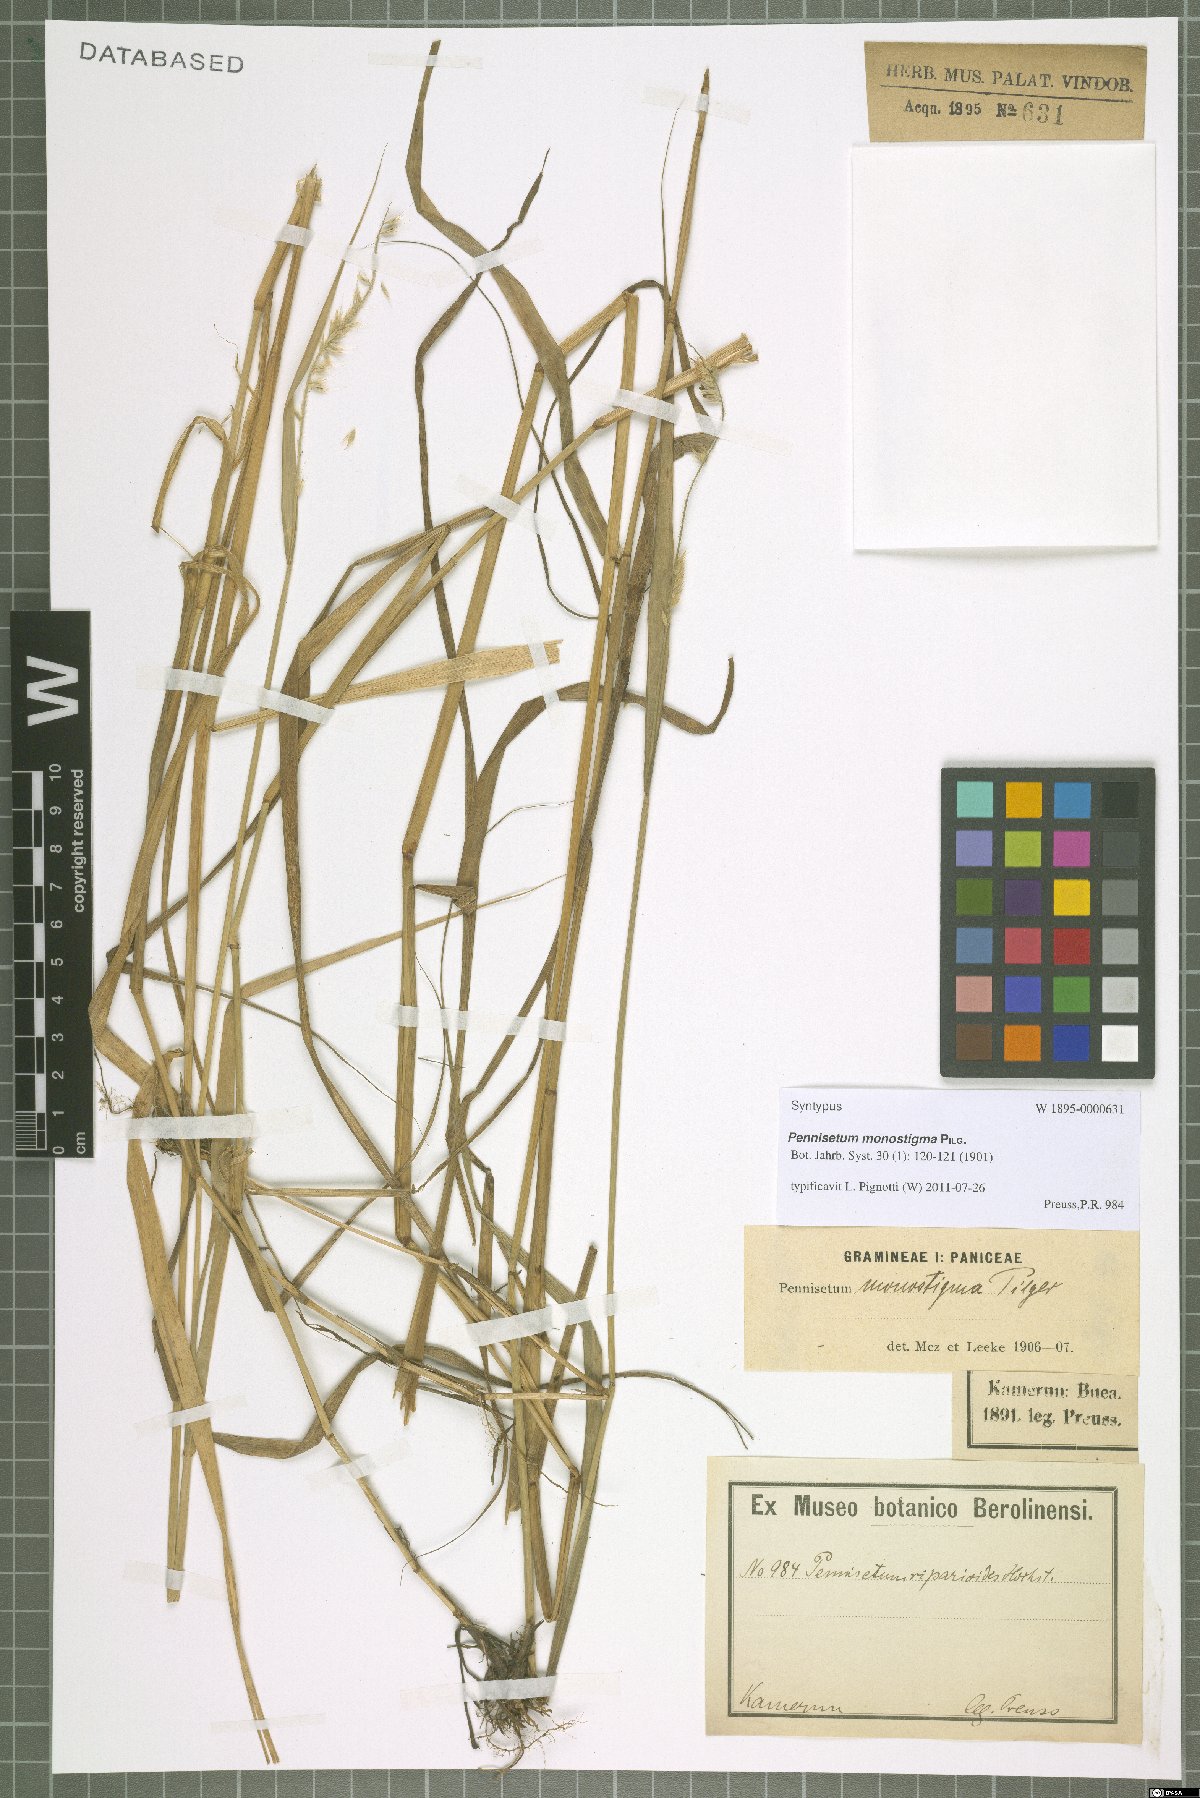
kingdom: Plantae
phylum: Tracheophyta
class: Liliopsida
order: Poales
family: Poaceae
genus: Cenchrus
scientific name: Cenchrus monostigma
